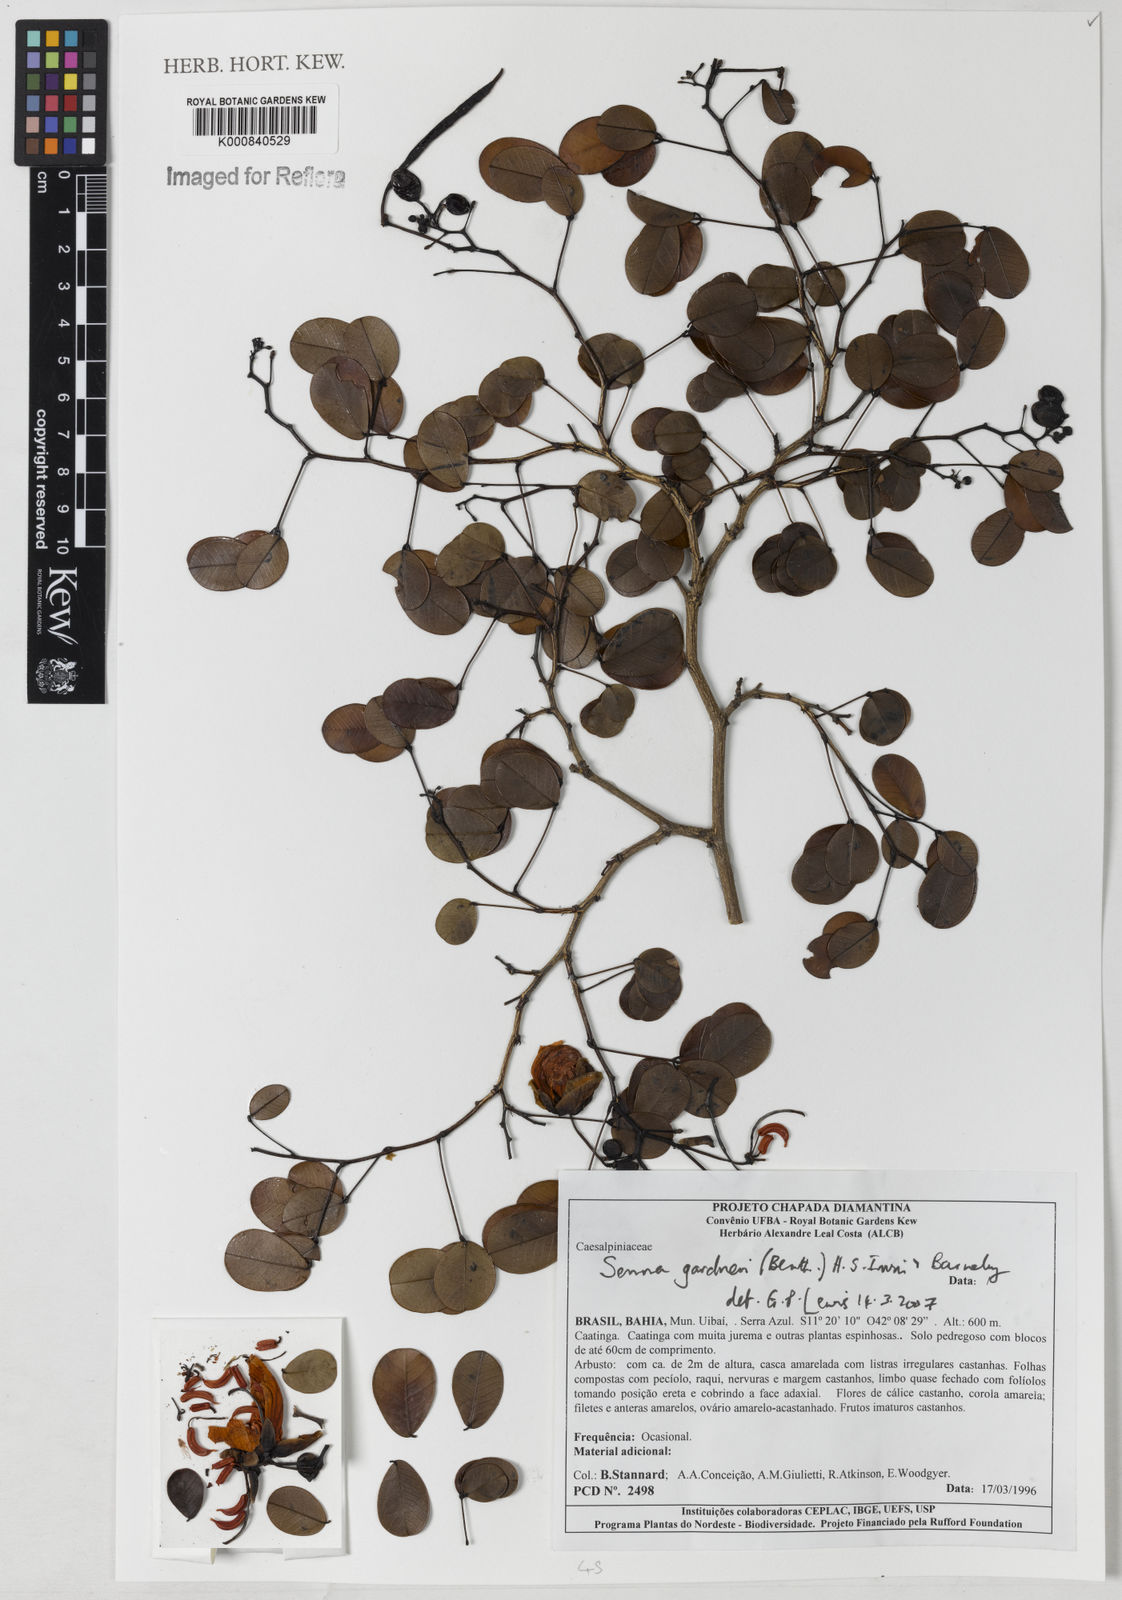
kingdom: Plantae
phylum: Tracheophyta
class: Magnoliopsida
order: Fabales
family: Fabaceae
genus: Senna
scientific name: Senna gardneri
